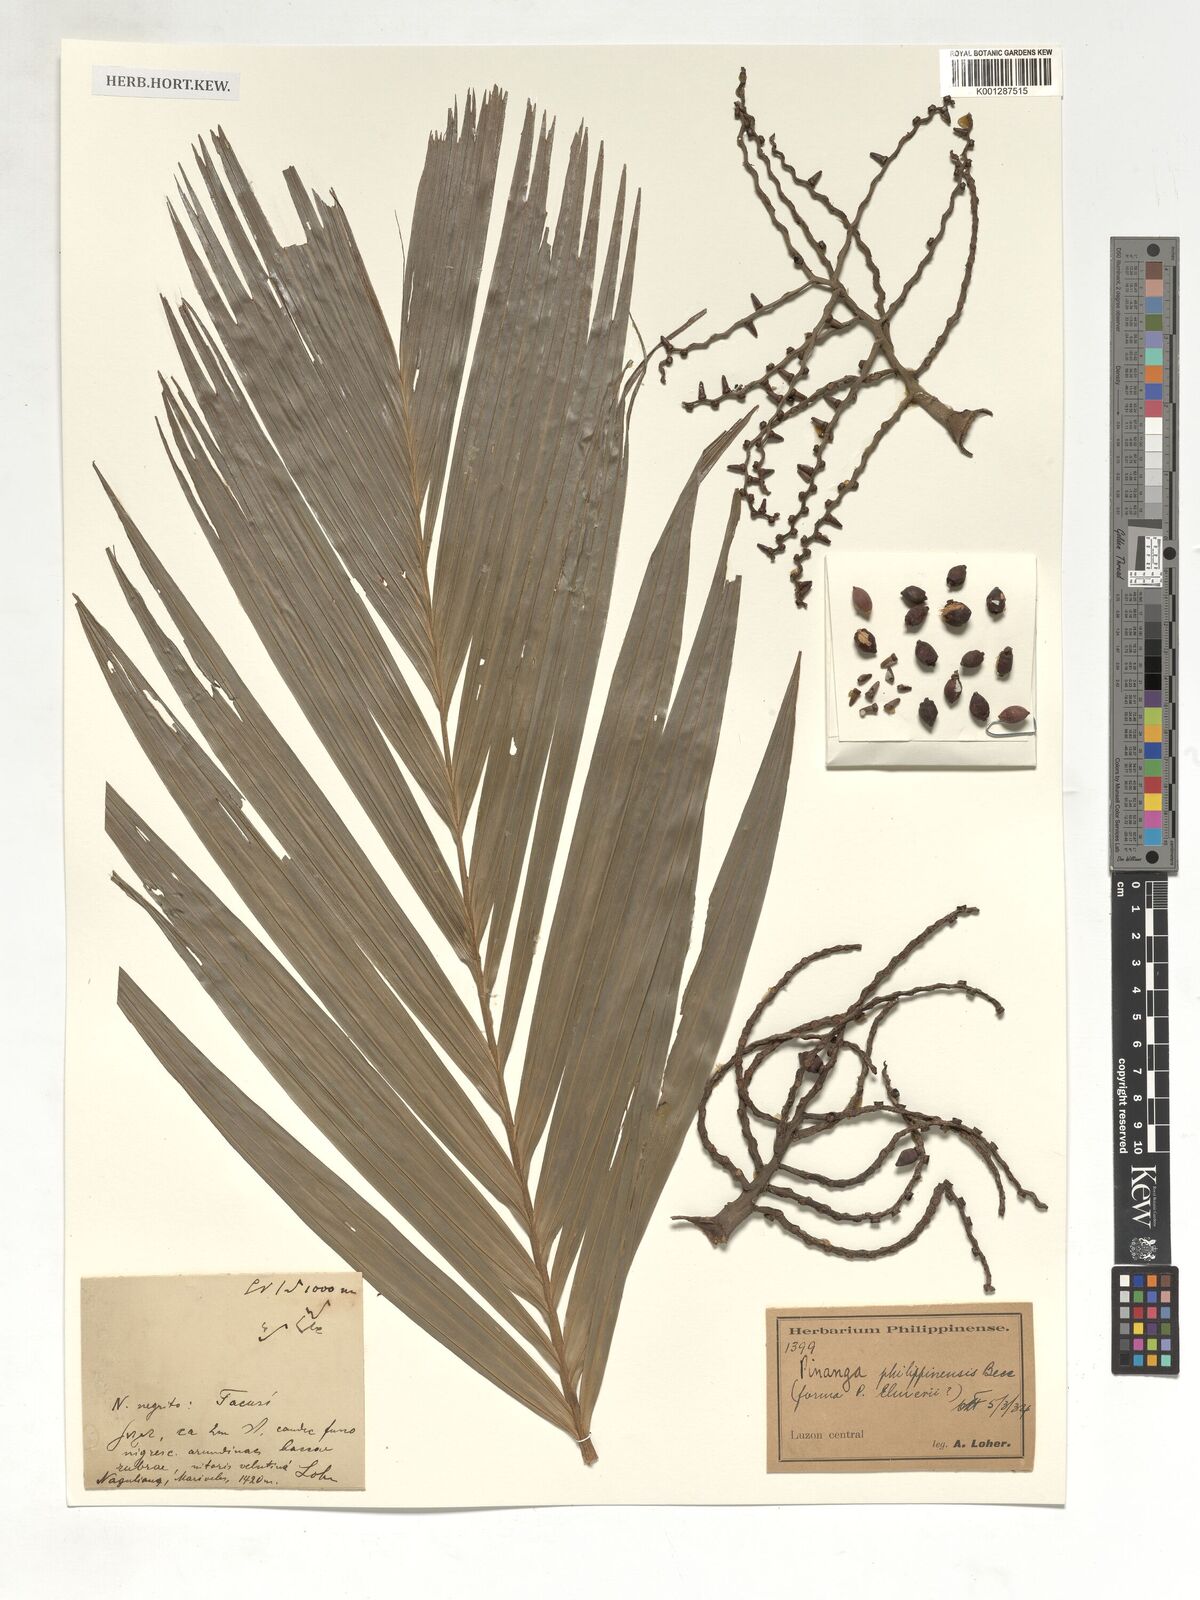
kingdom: Plantae
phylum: Tracheophyta
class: Liliopsida
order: Arecales
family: Arecaceae
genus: Pinanga
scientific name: Pinanga philippinensis
